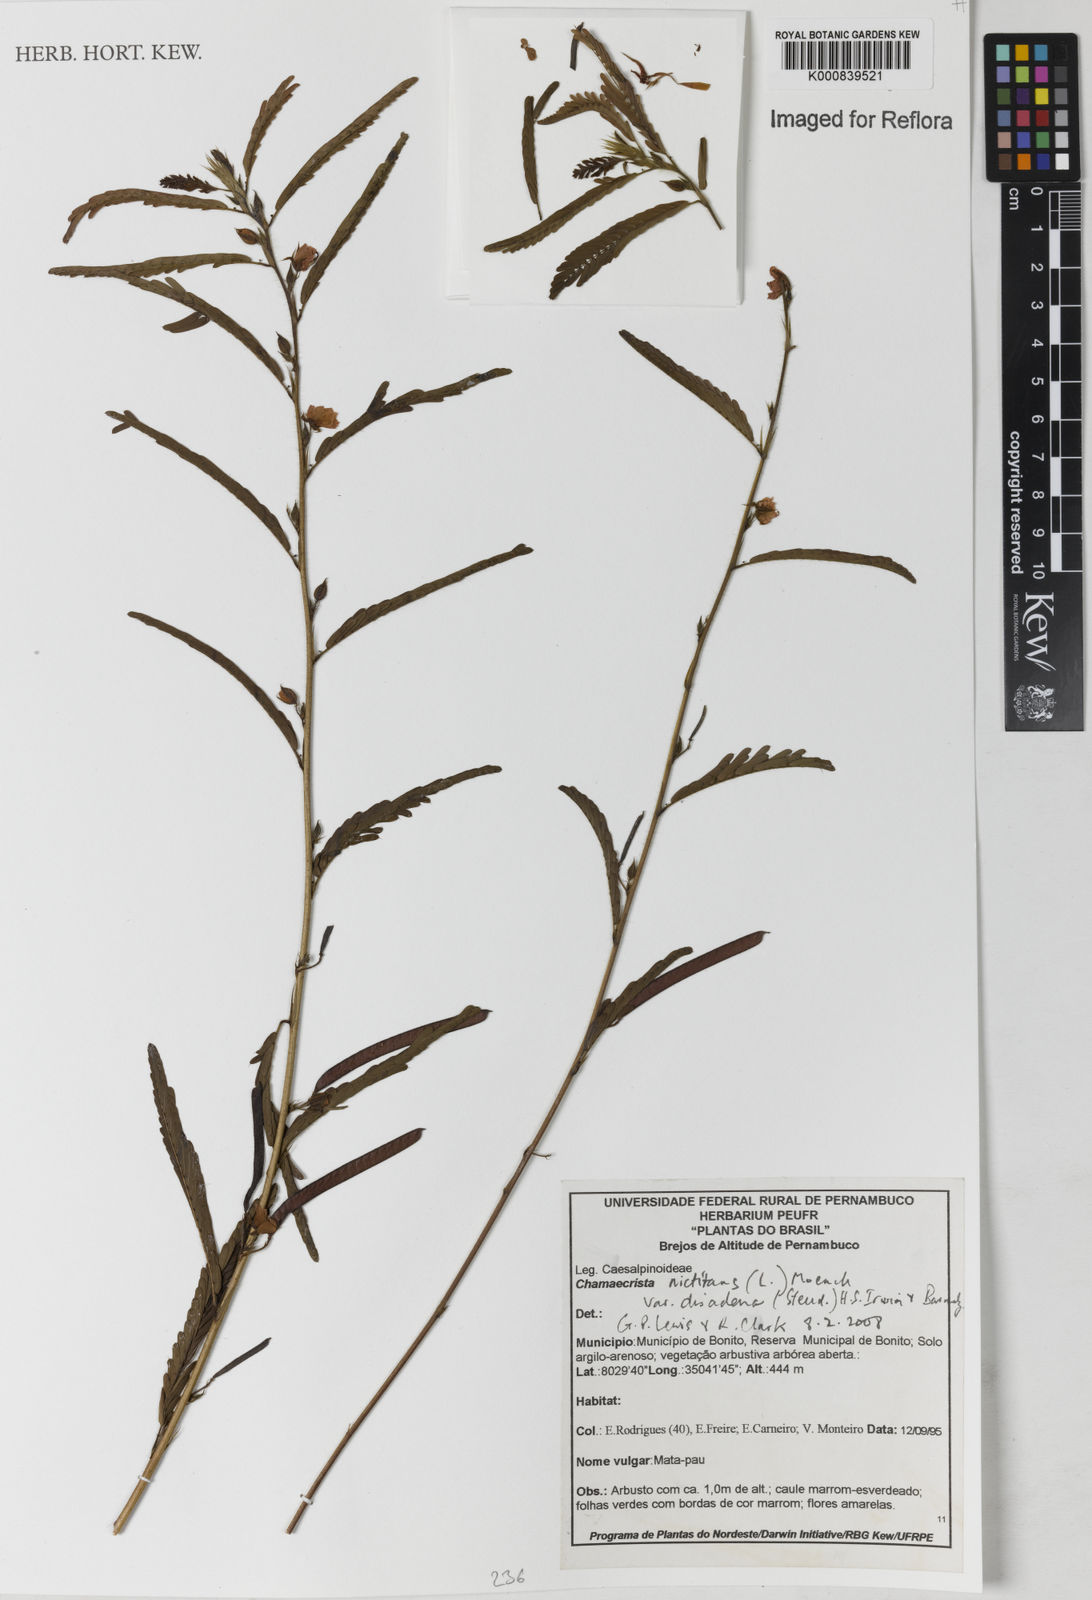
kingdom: Plantae
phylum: Tracheophyta
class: Magnoliopsida
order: Fabales
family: Fabaceae
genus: Chamaecrista
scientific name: Chamaecrista nictitans
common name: Sensitive cassia
